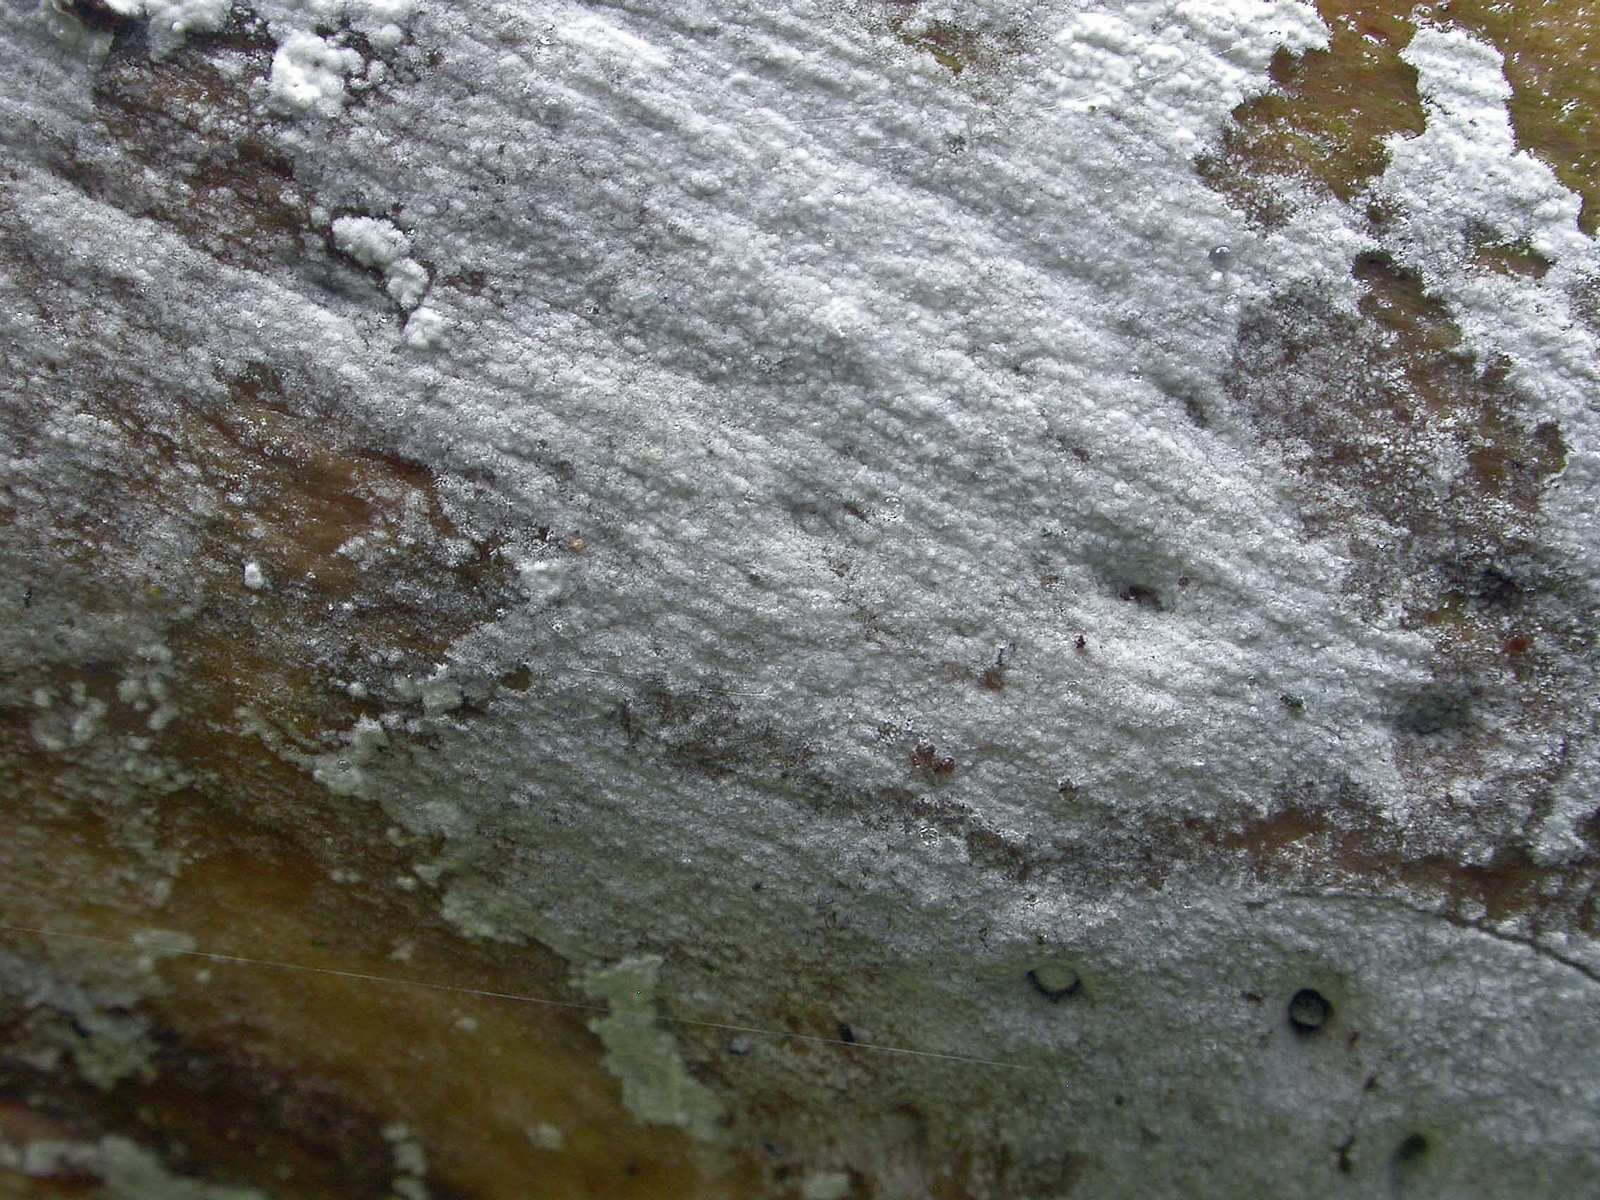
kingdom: Fungi
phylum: Basidiomycota
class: Agaricomycetes
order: Corticiales
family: Corticiaceae
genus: Lyomyces
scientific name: Lyomyces sambuci
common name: almindelig hyldehinde
